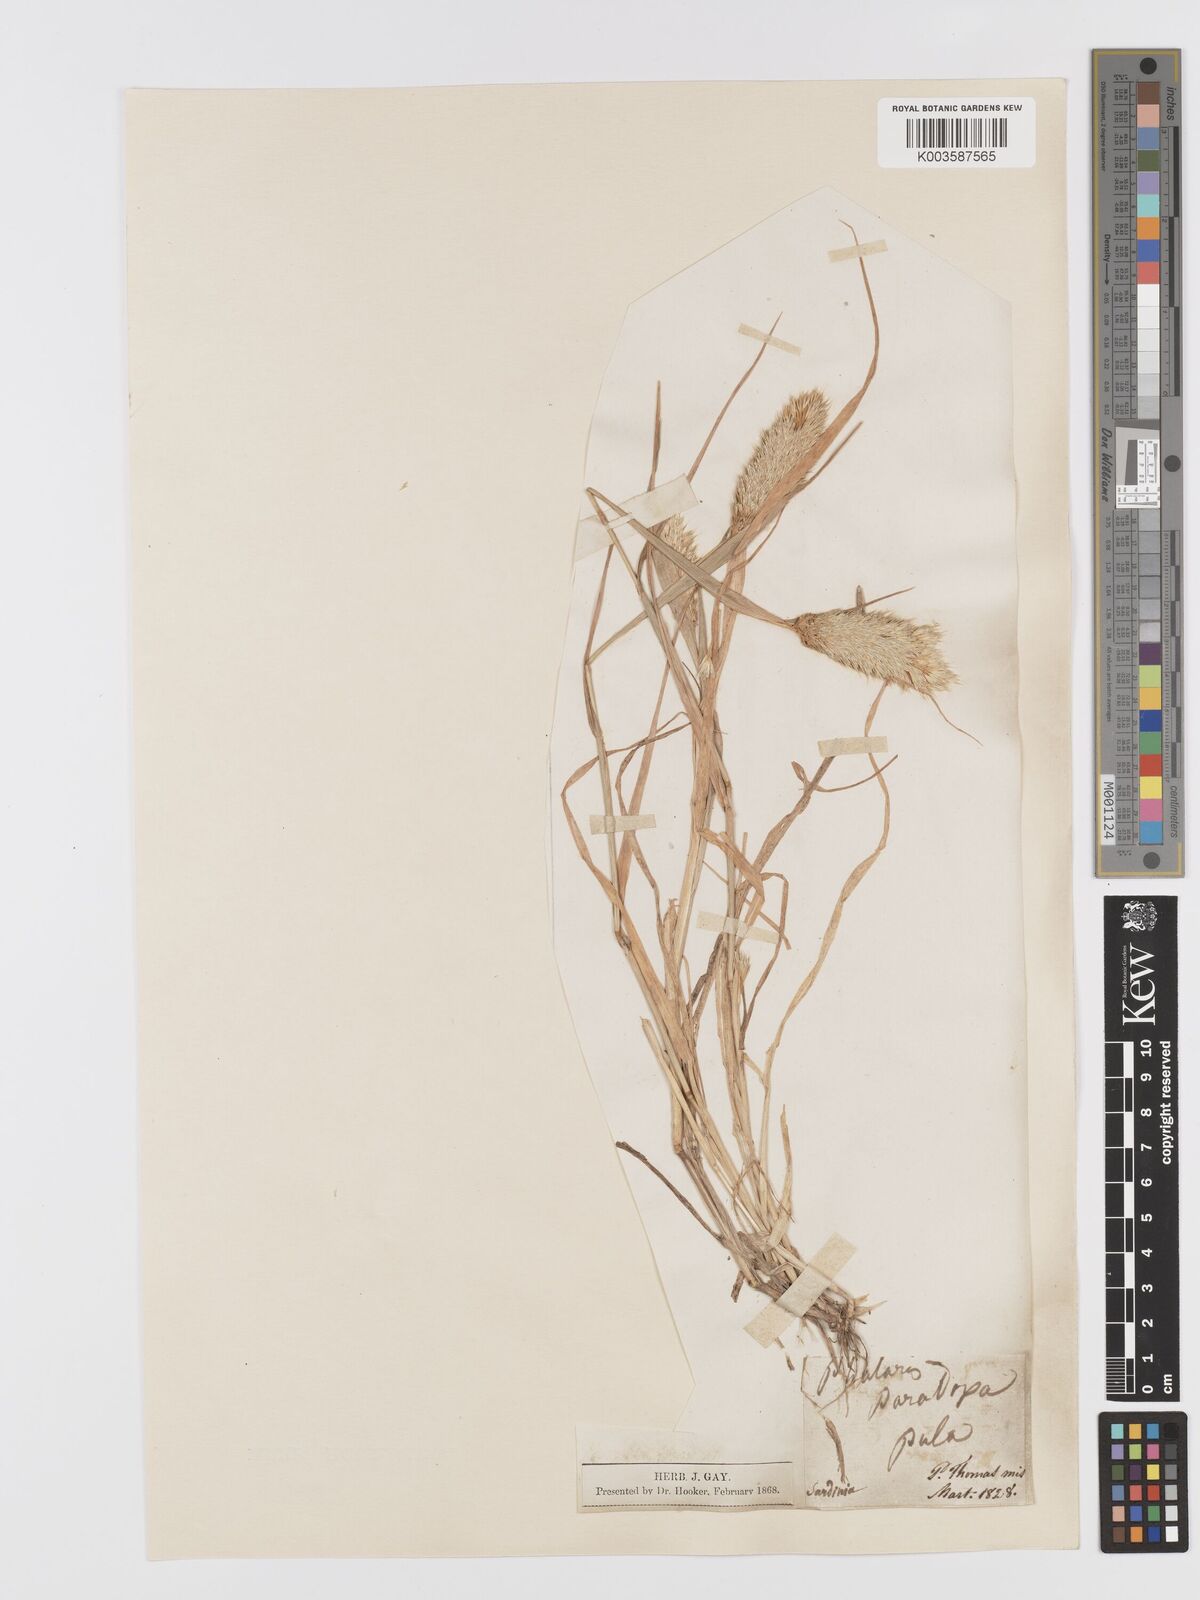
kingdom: Plantae
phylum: Tracheophyta
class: Liliopsida
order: Poales
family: Poaceae
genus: Phalaris
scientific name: Phalaris paradoxa
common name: Awned canary-grass
